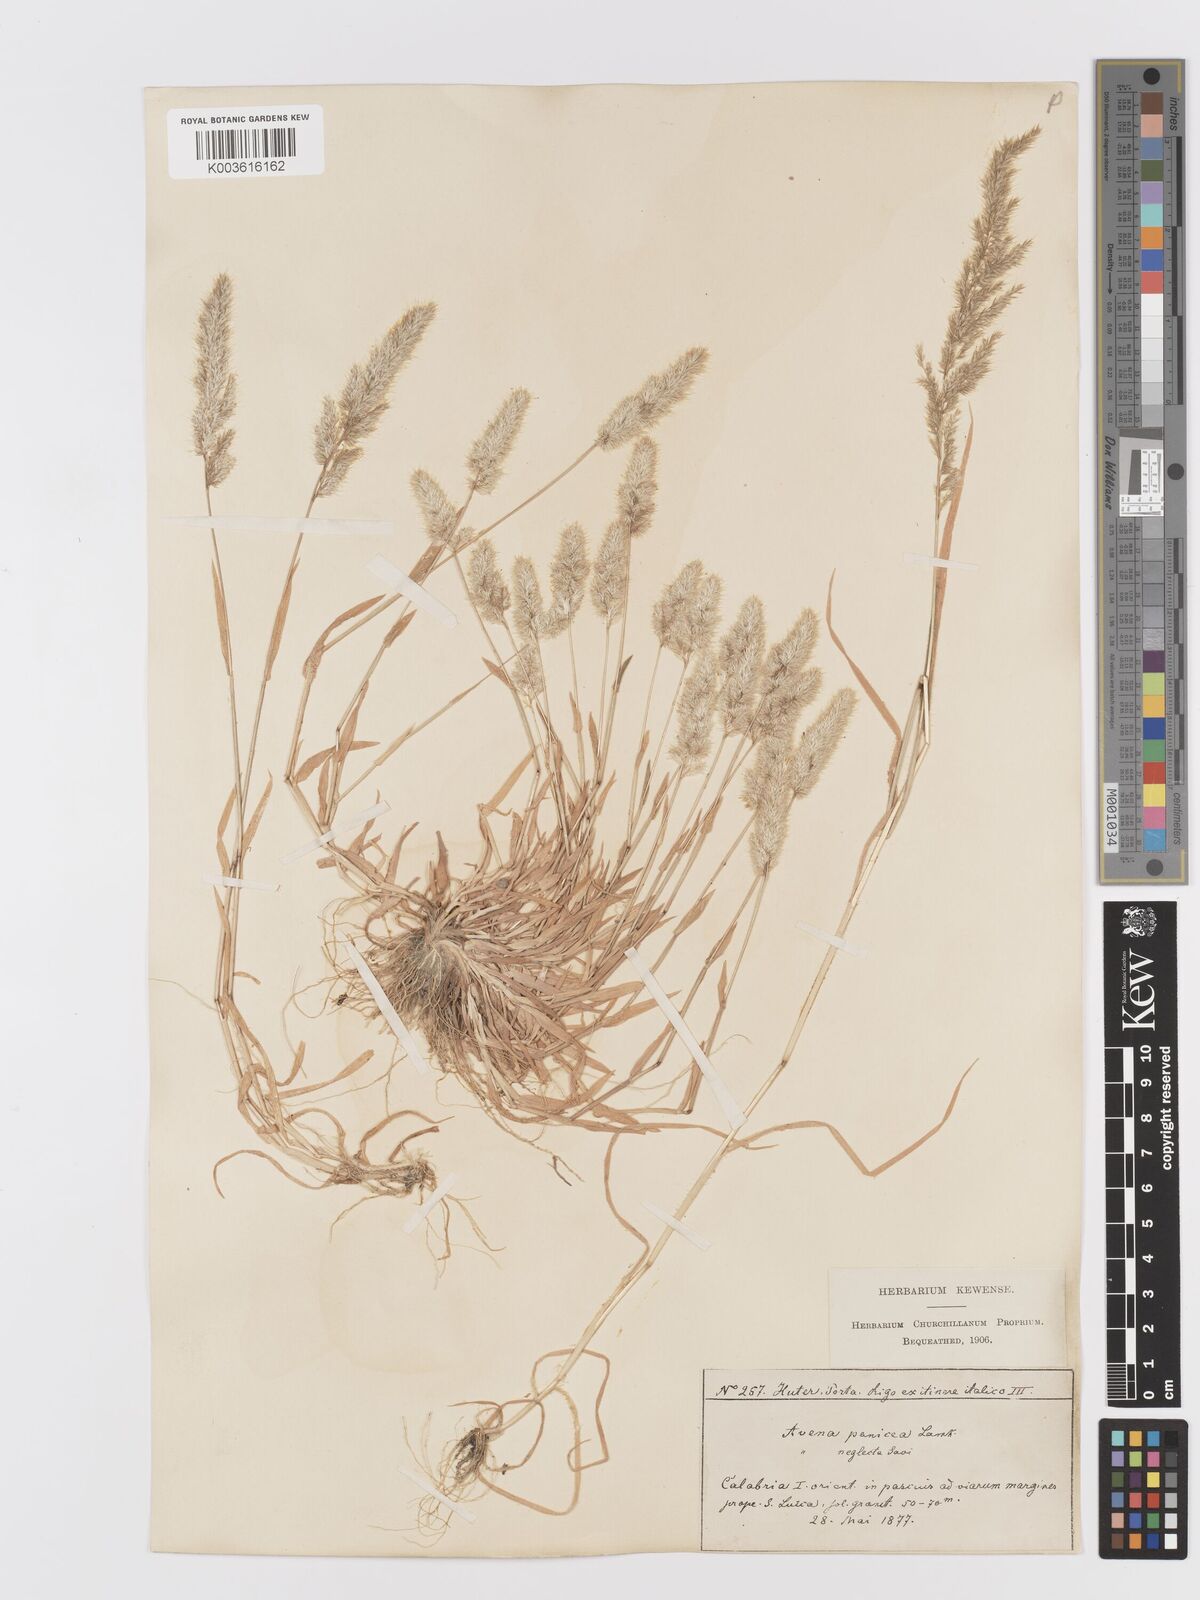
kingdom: Plantae
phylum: Tracheophyta
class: Liliopsida
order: Poales
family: Poaceae
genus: Trisetaria
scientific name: Trisetaria panicea
